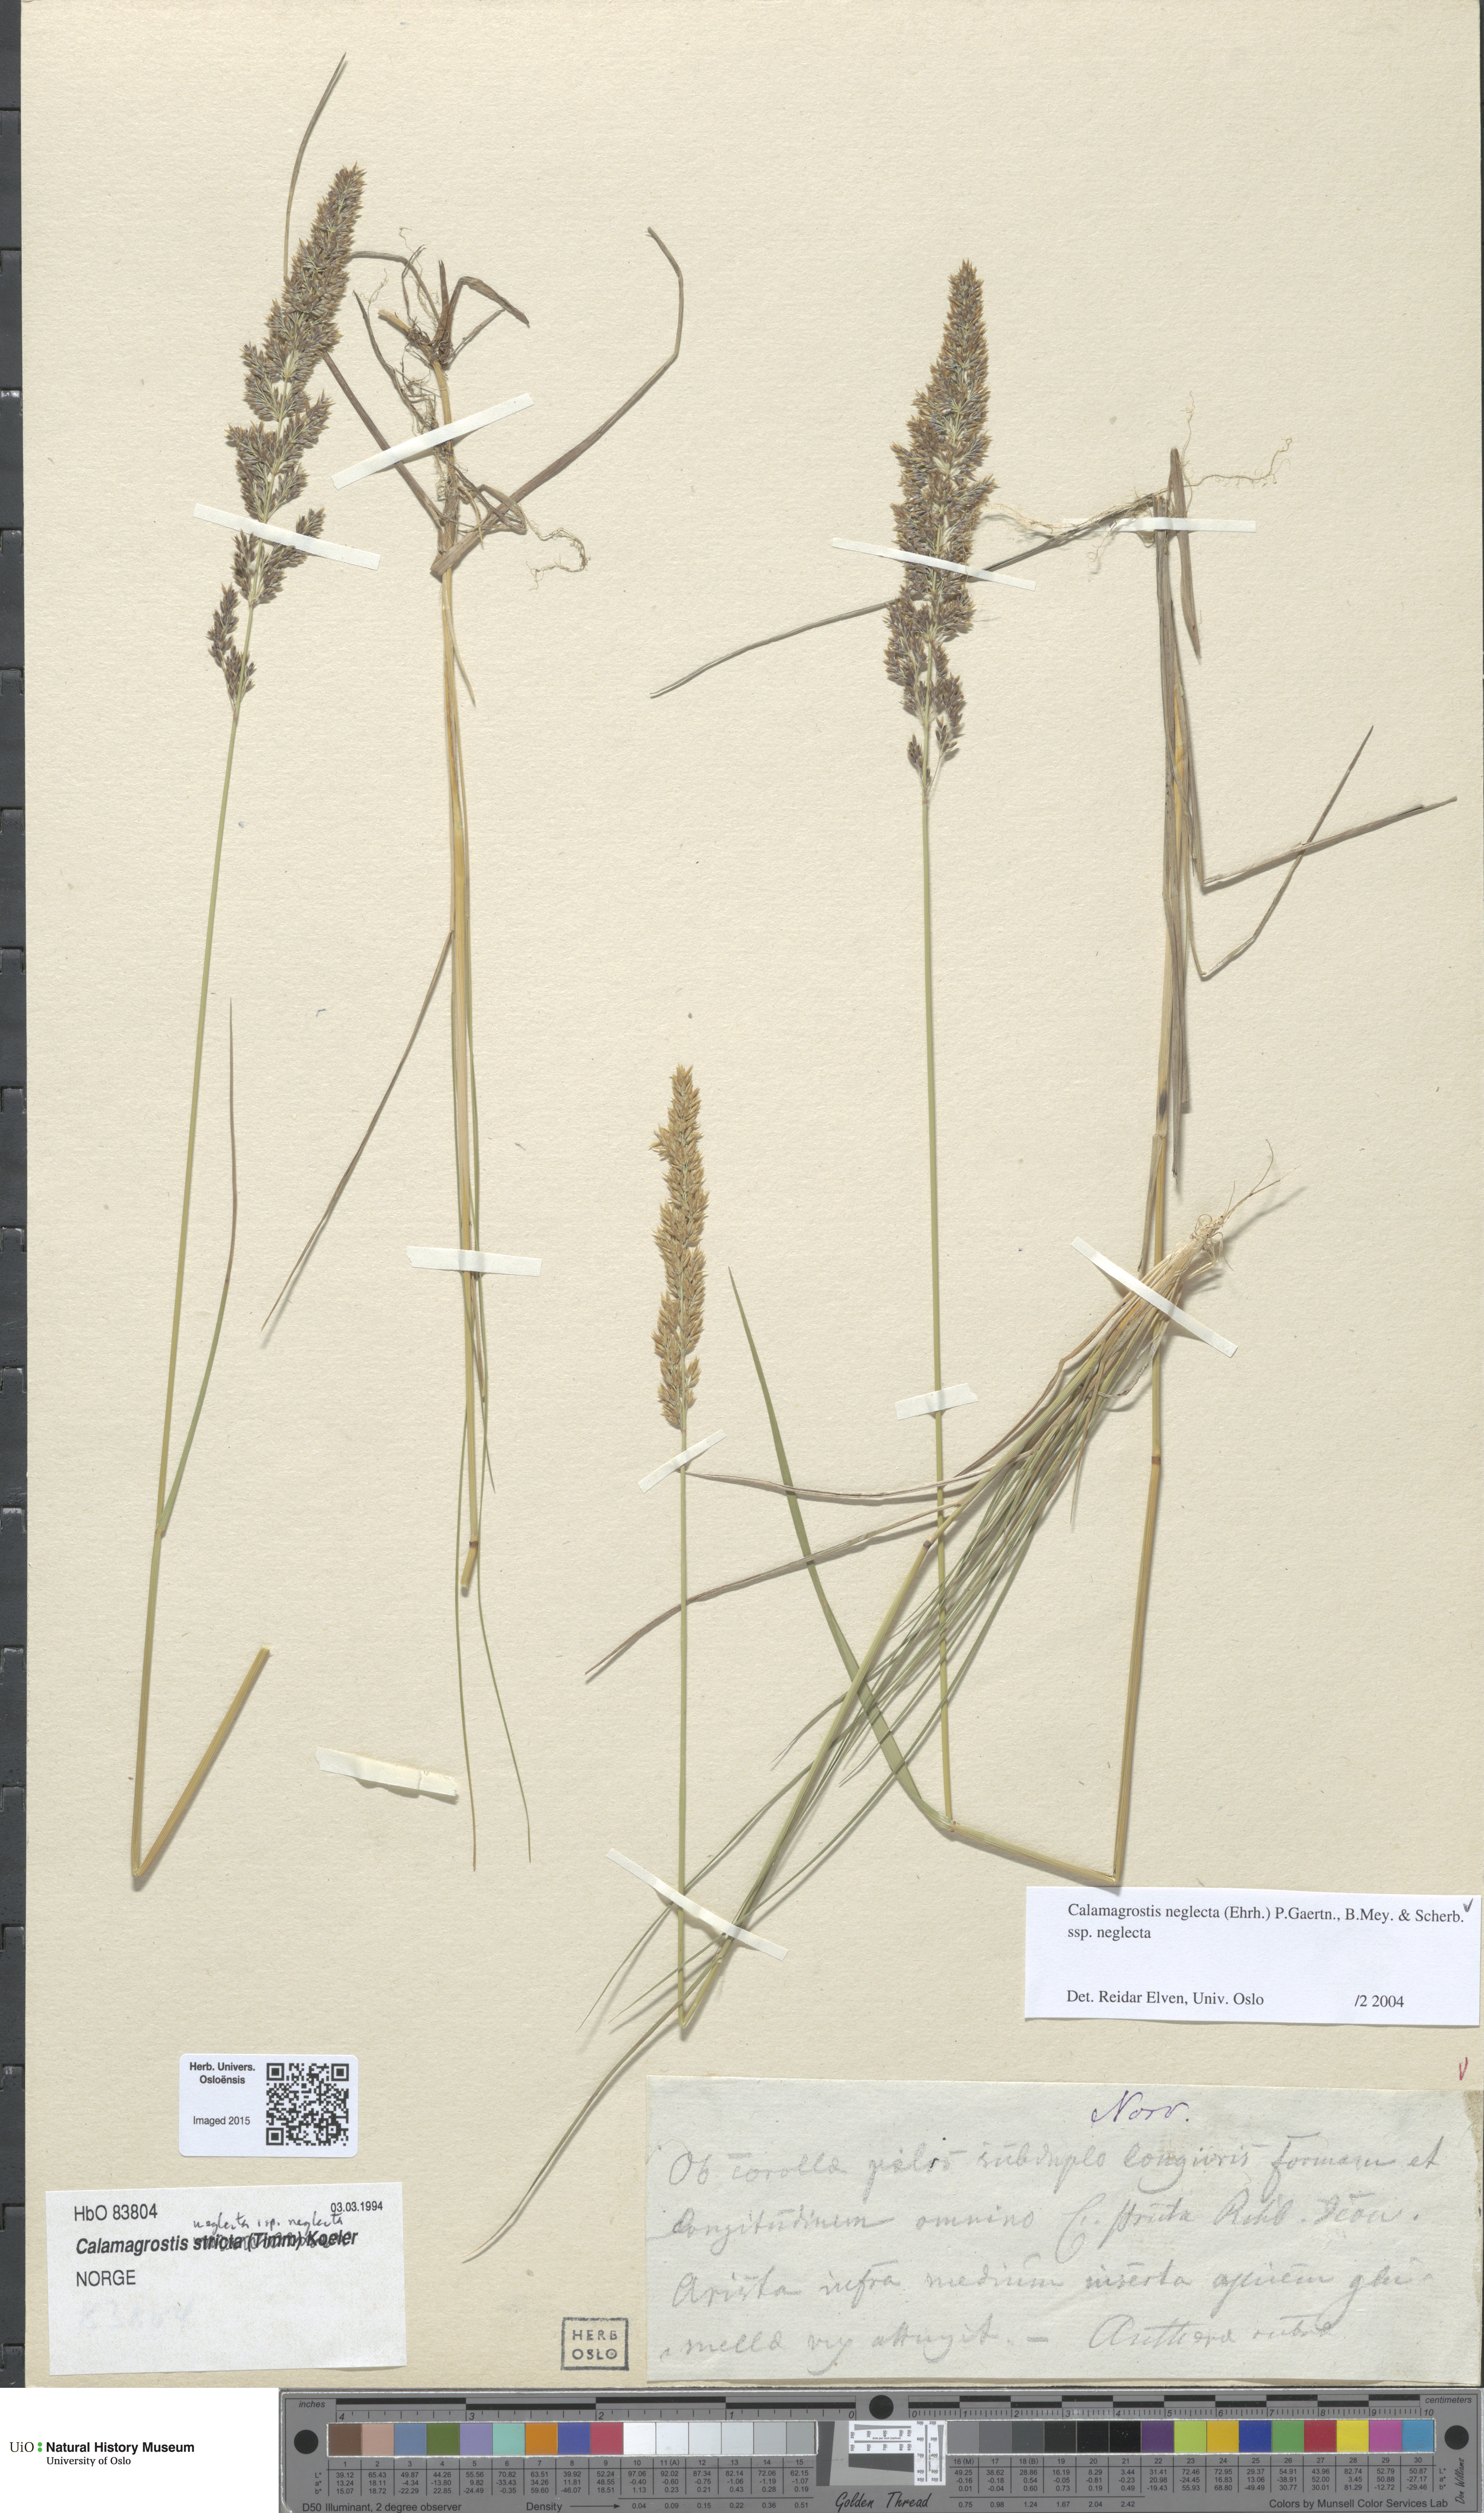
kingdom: Plantae
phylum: Tracheophyta
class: Liliopsida
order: Poales
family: Poaceae
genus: Achnatherum
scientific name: Achnatherum calamagrostis
